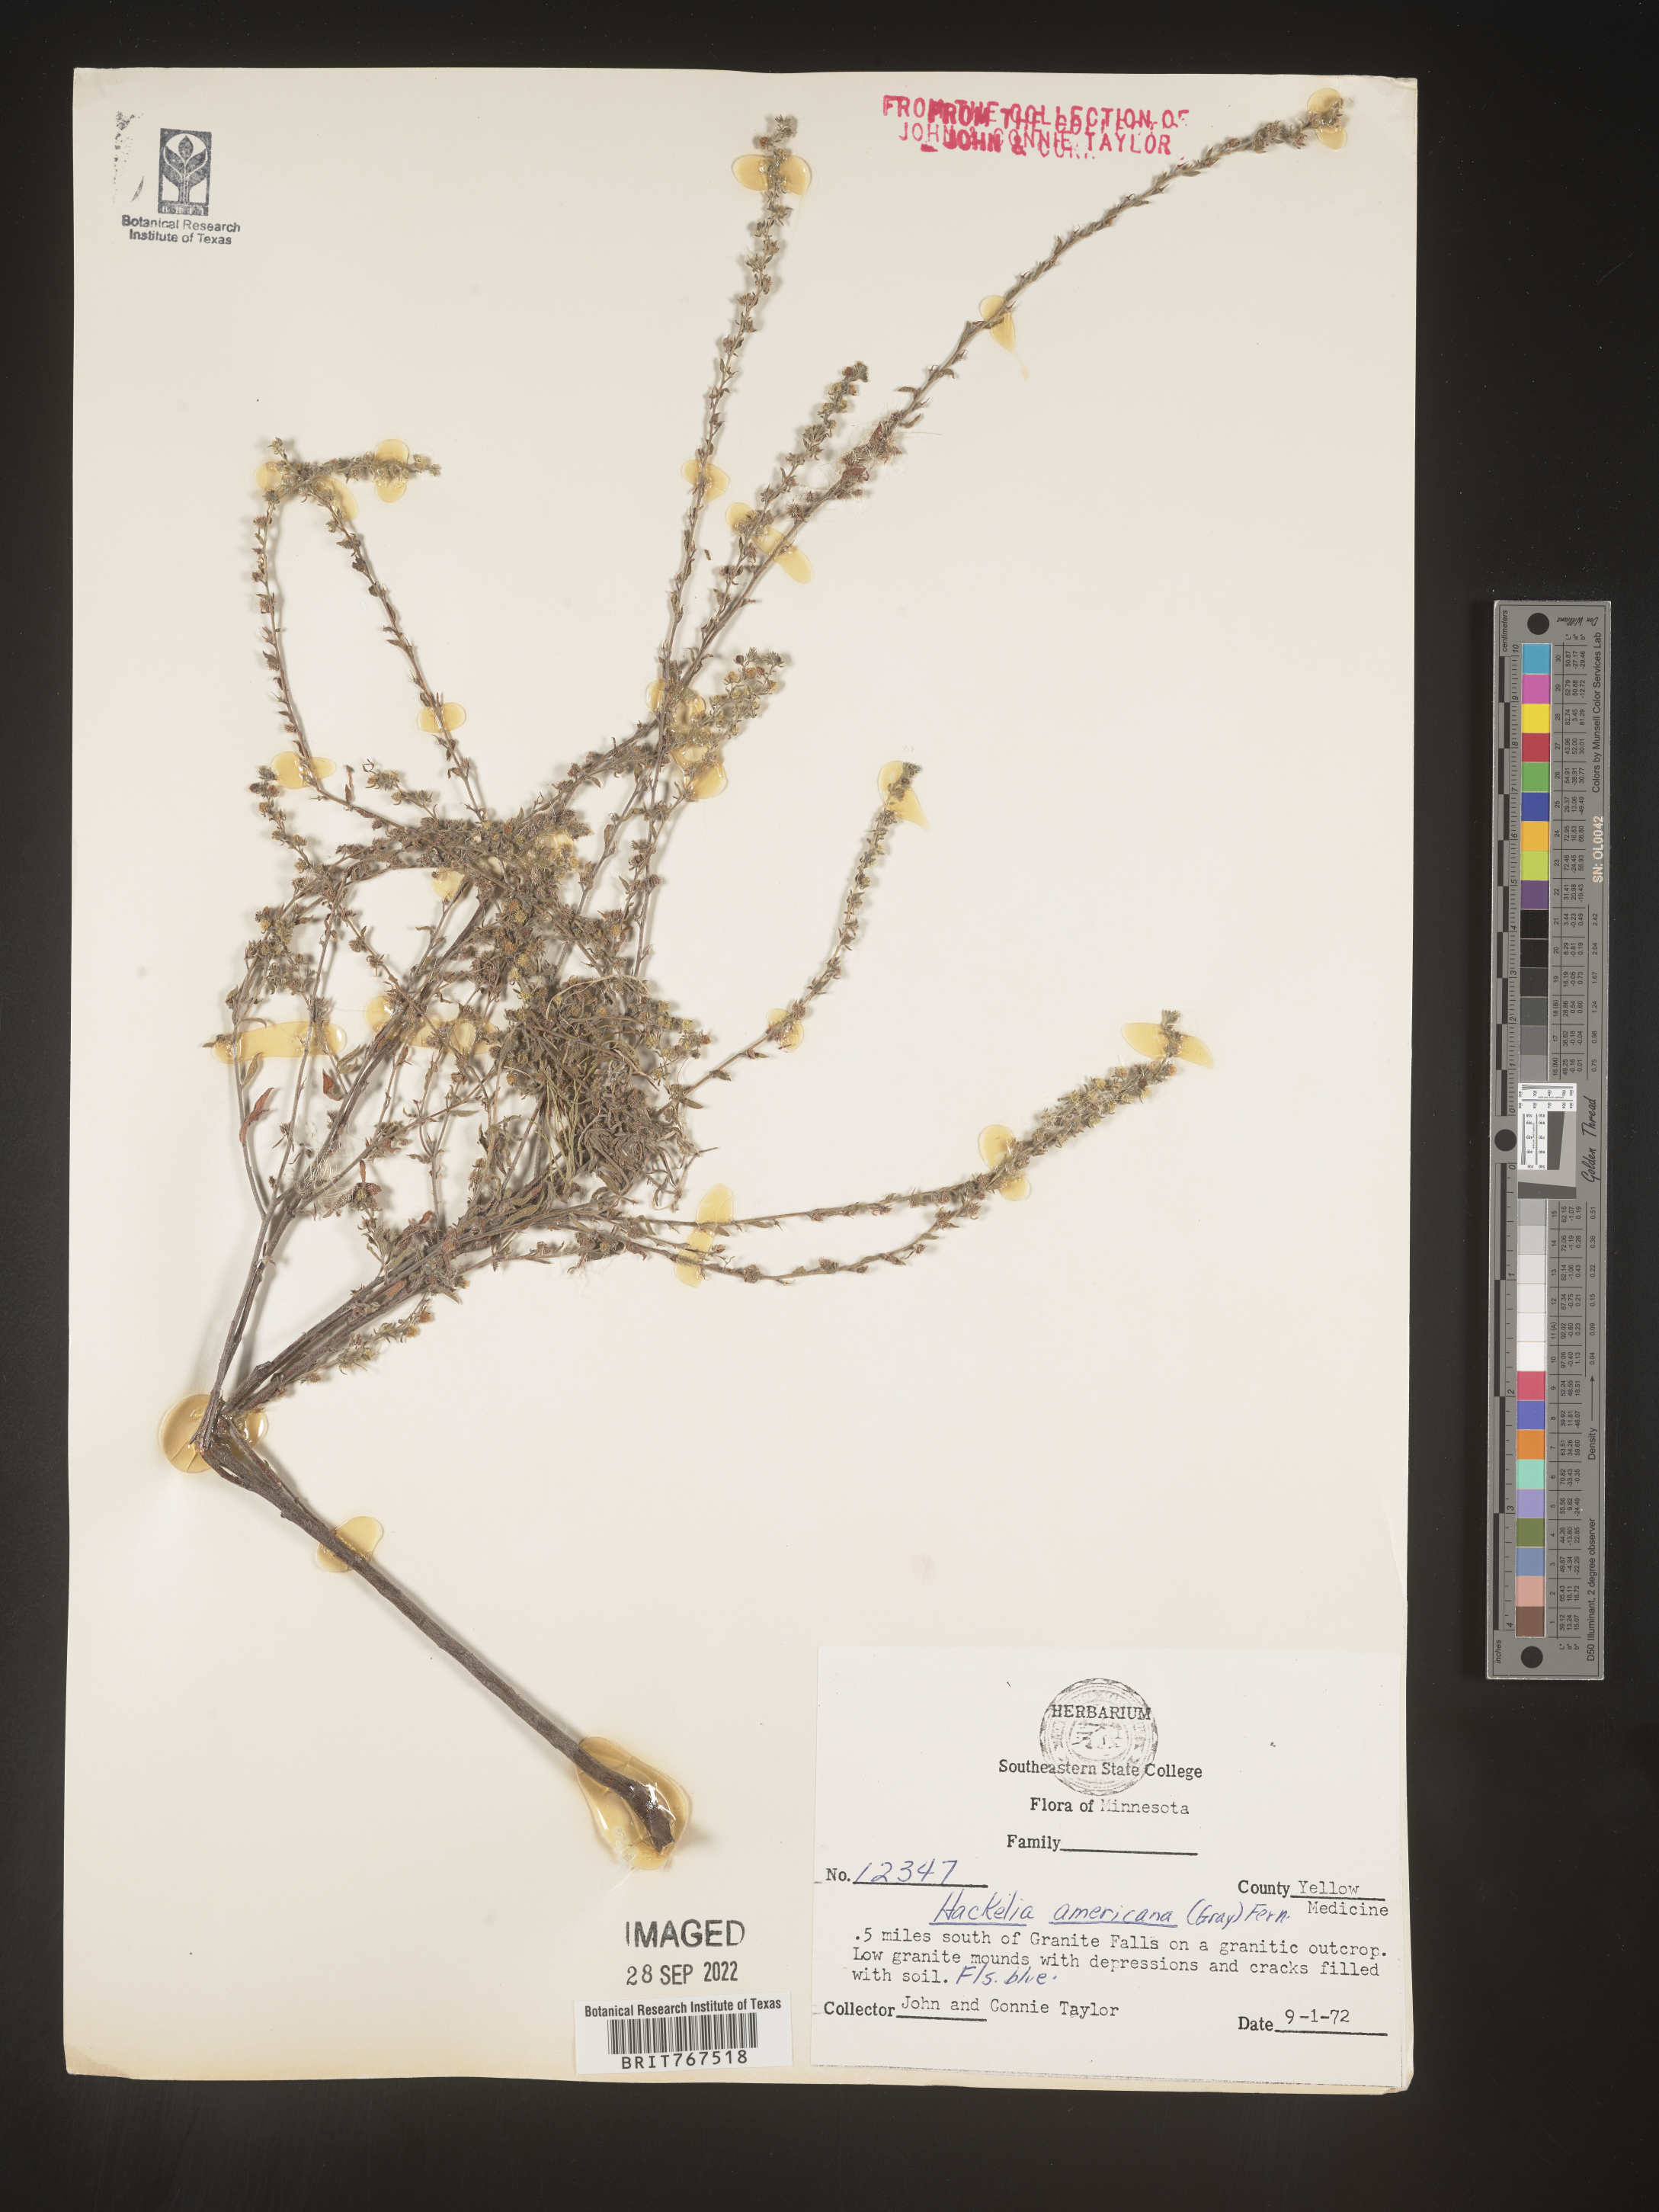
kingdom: Plantae
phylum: Tracheophyta
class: Magnoliopsida
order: Boraginales
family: Boraginaceae
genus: Hackelia
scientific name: Hackelia
